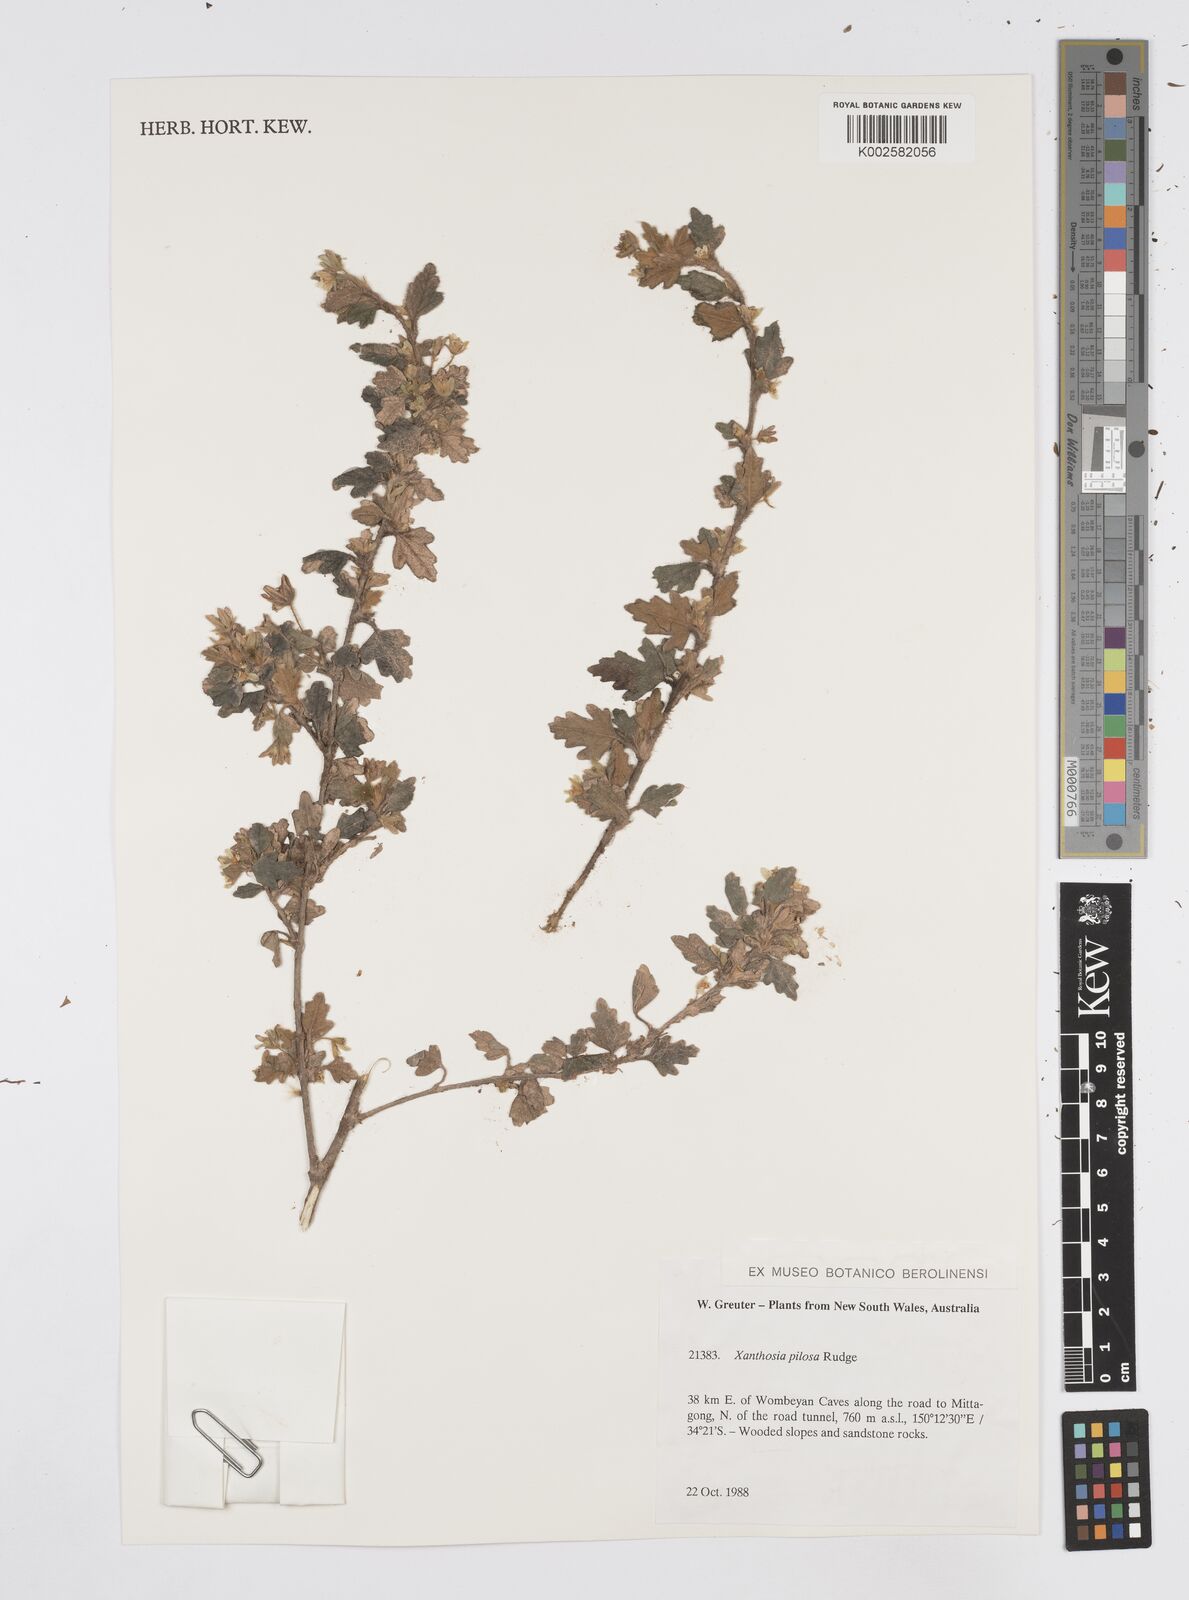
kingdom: Plantae
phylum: Tracheophyta
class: Magnoliopsida
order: Apiales
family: Apiaceae
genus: Xanthosia
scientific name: Xanthosia pilosa
